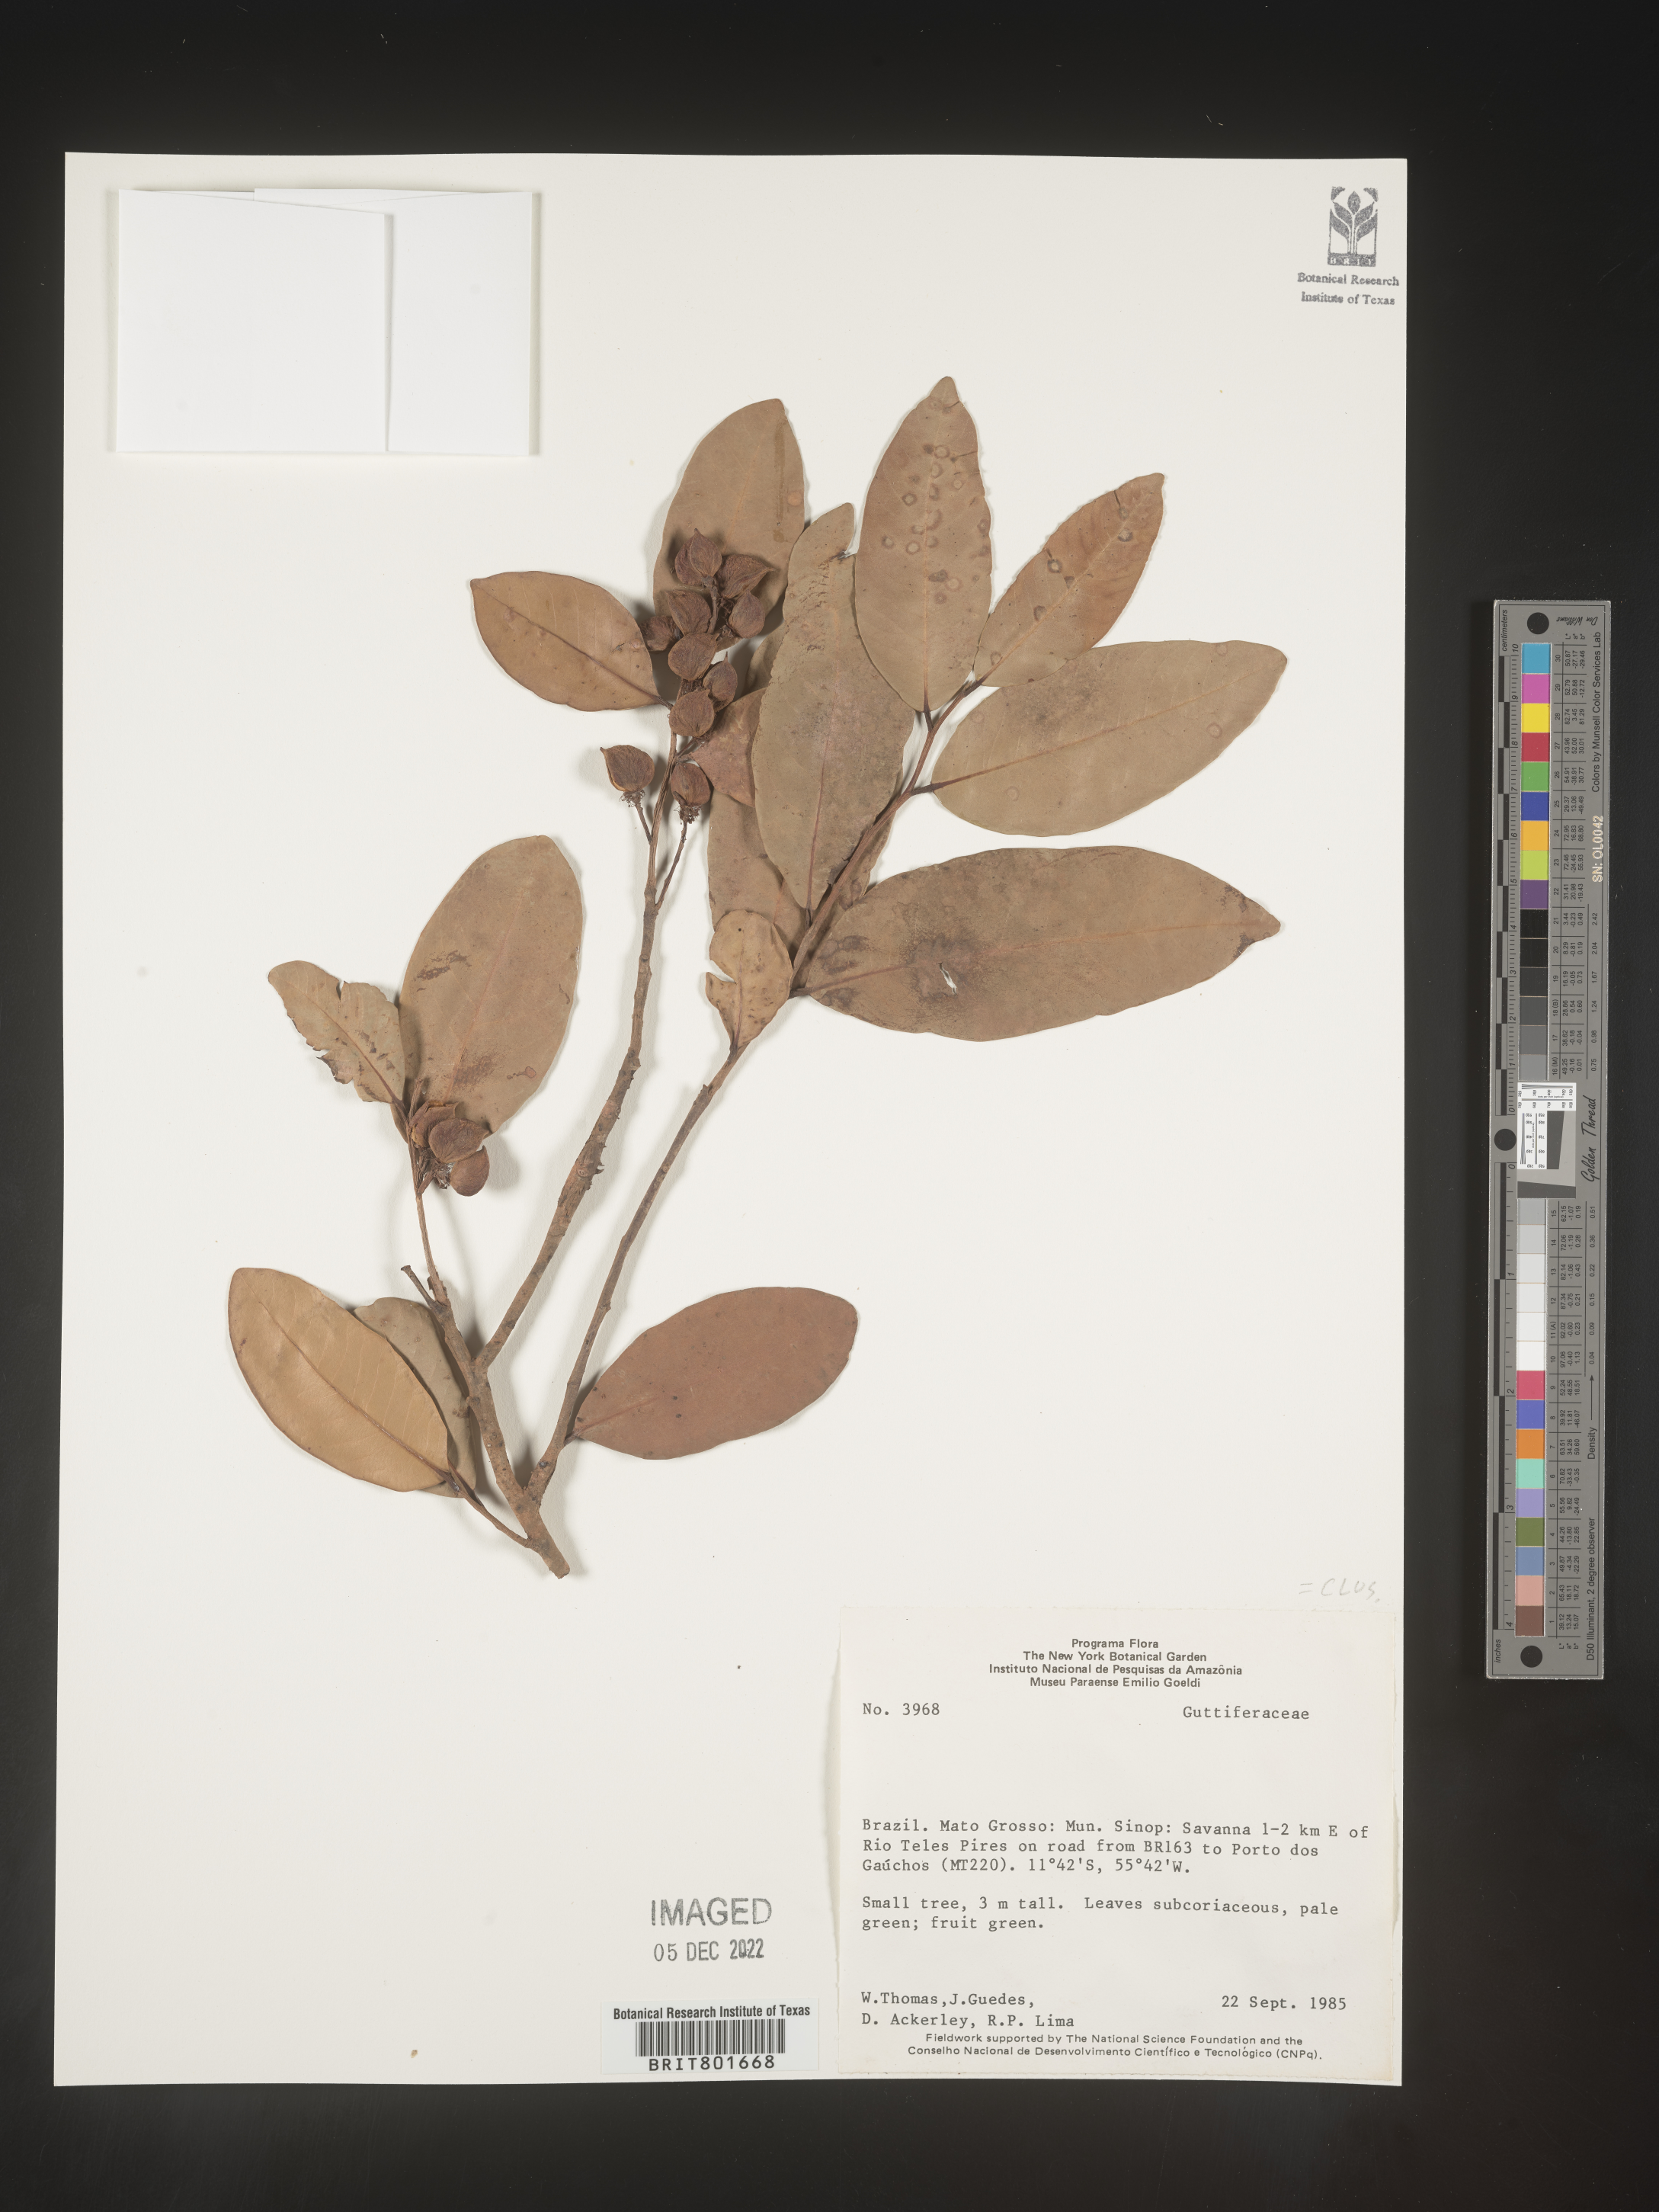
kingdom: Plantae
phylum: Tracheophyta
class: Magnoliopsida
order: Malpighiales
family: Clusiaceae
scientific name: Clusiaceae
